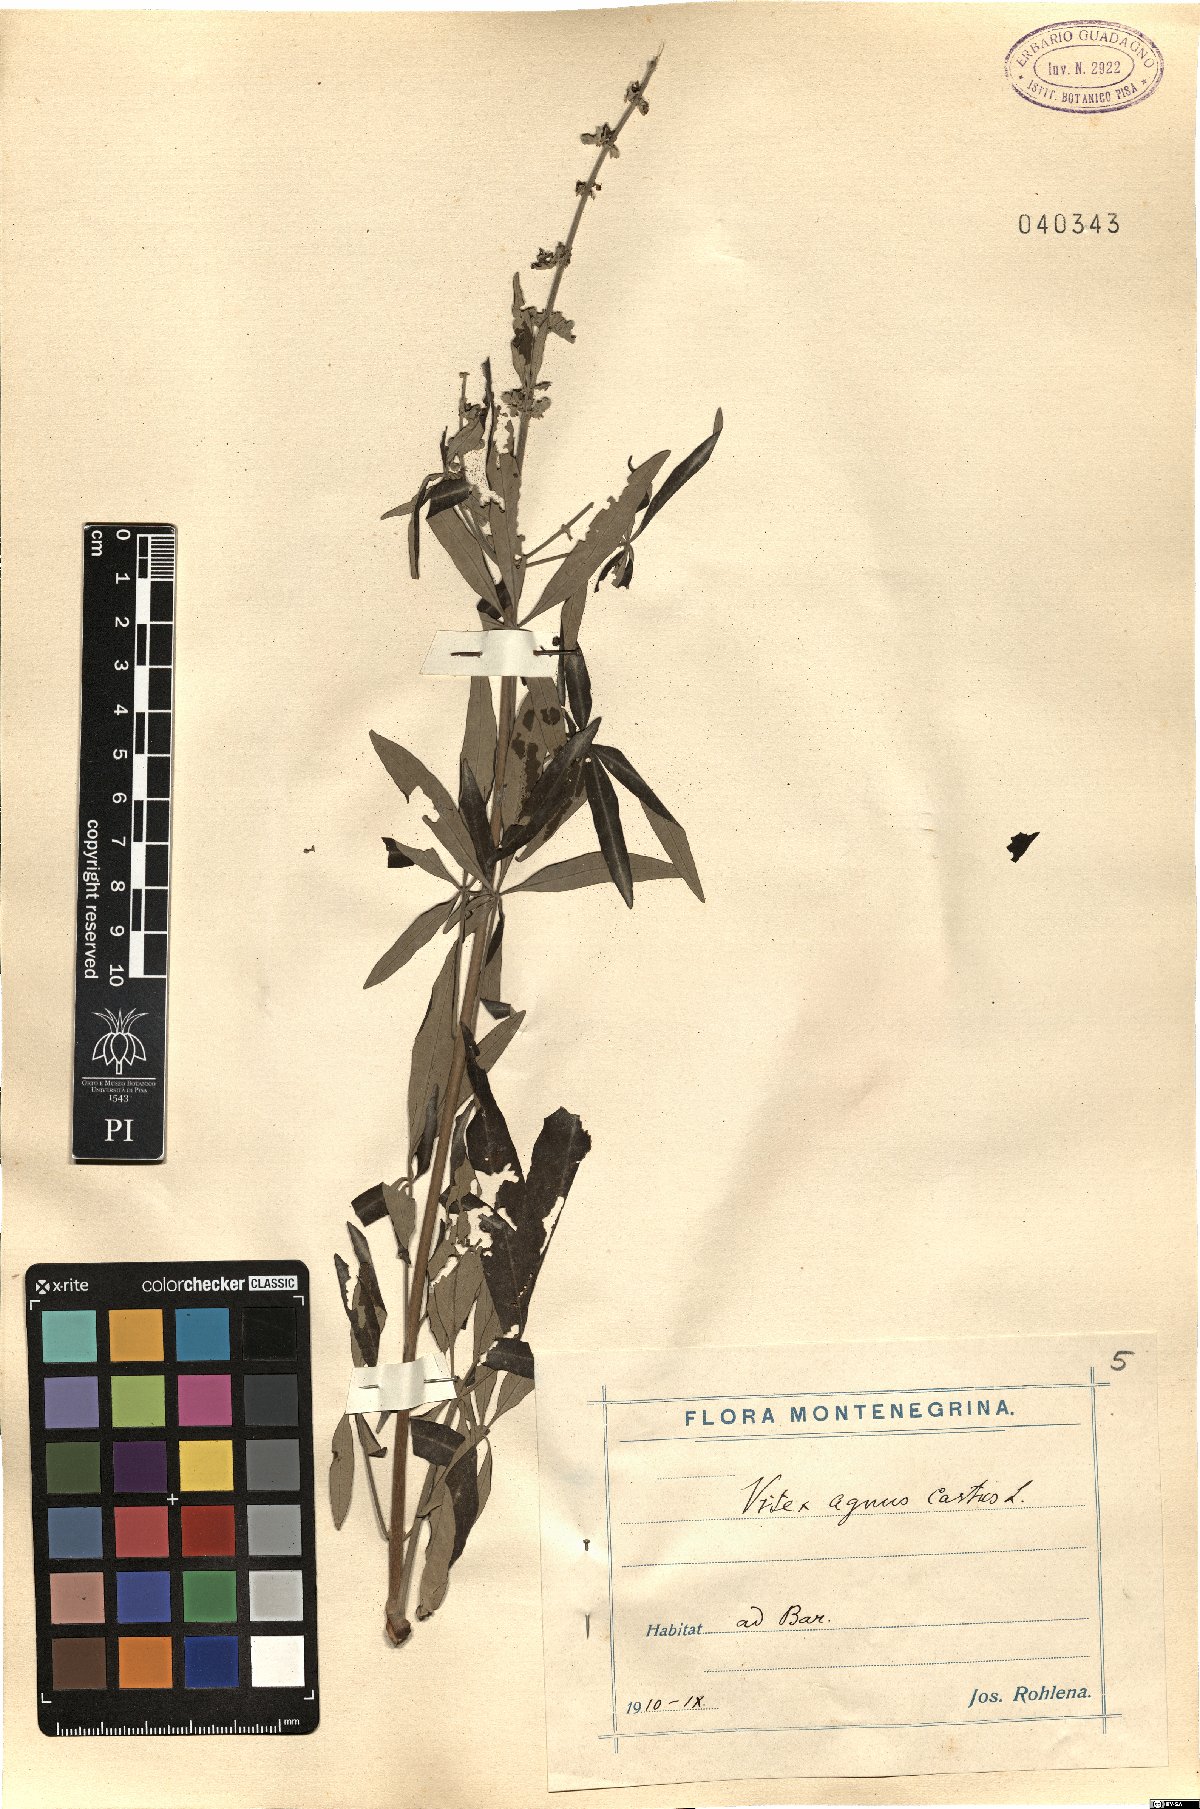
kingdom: Plantae
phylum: Tracheophyta
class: Magnoliopsida
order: Lamiales
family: Lamiaceae
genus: Vitex
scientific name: Vitex agnus-castus
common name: Chasteberry
